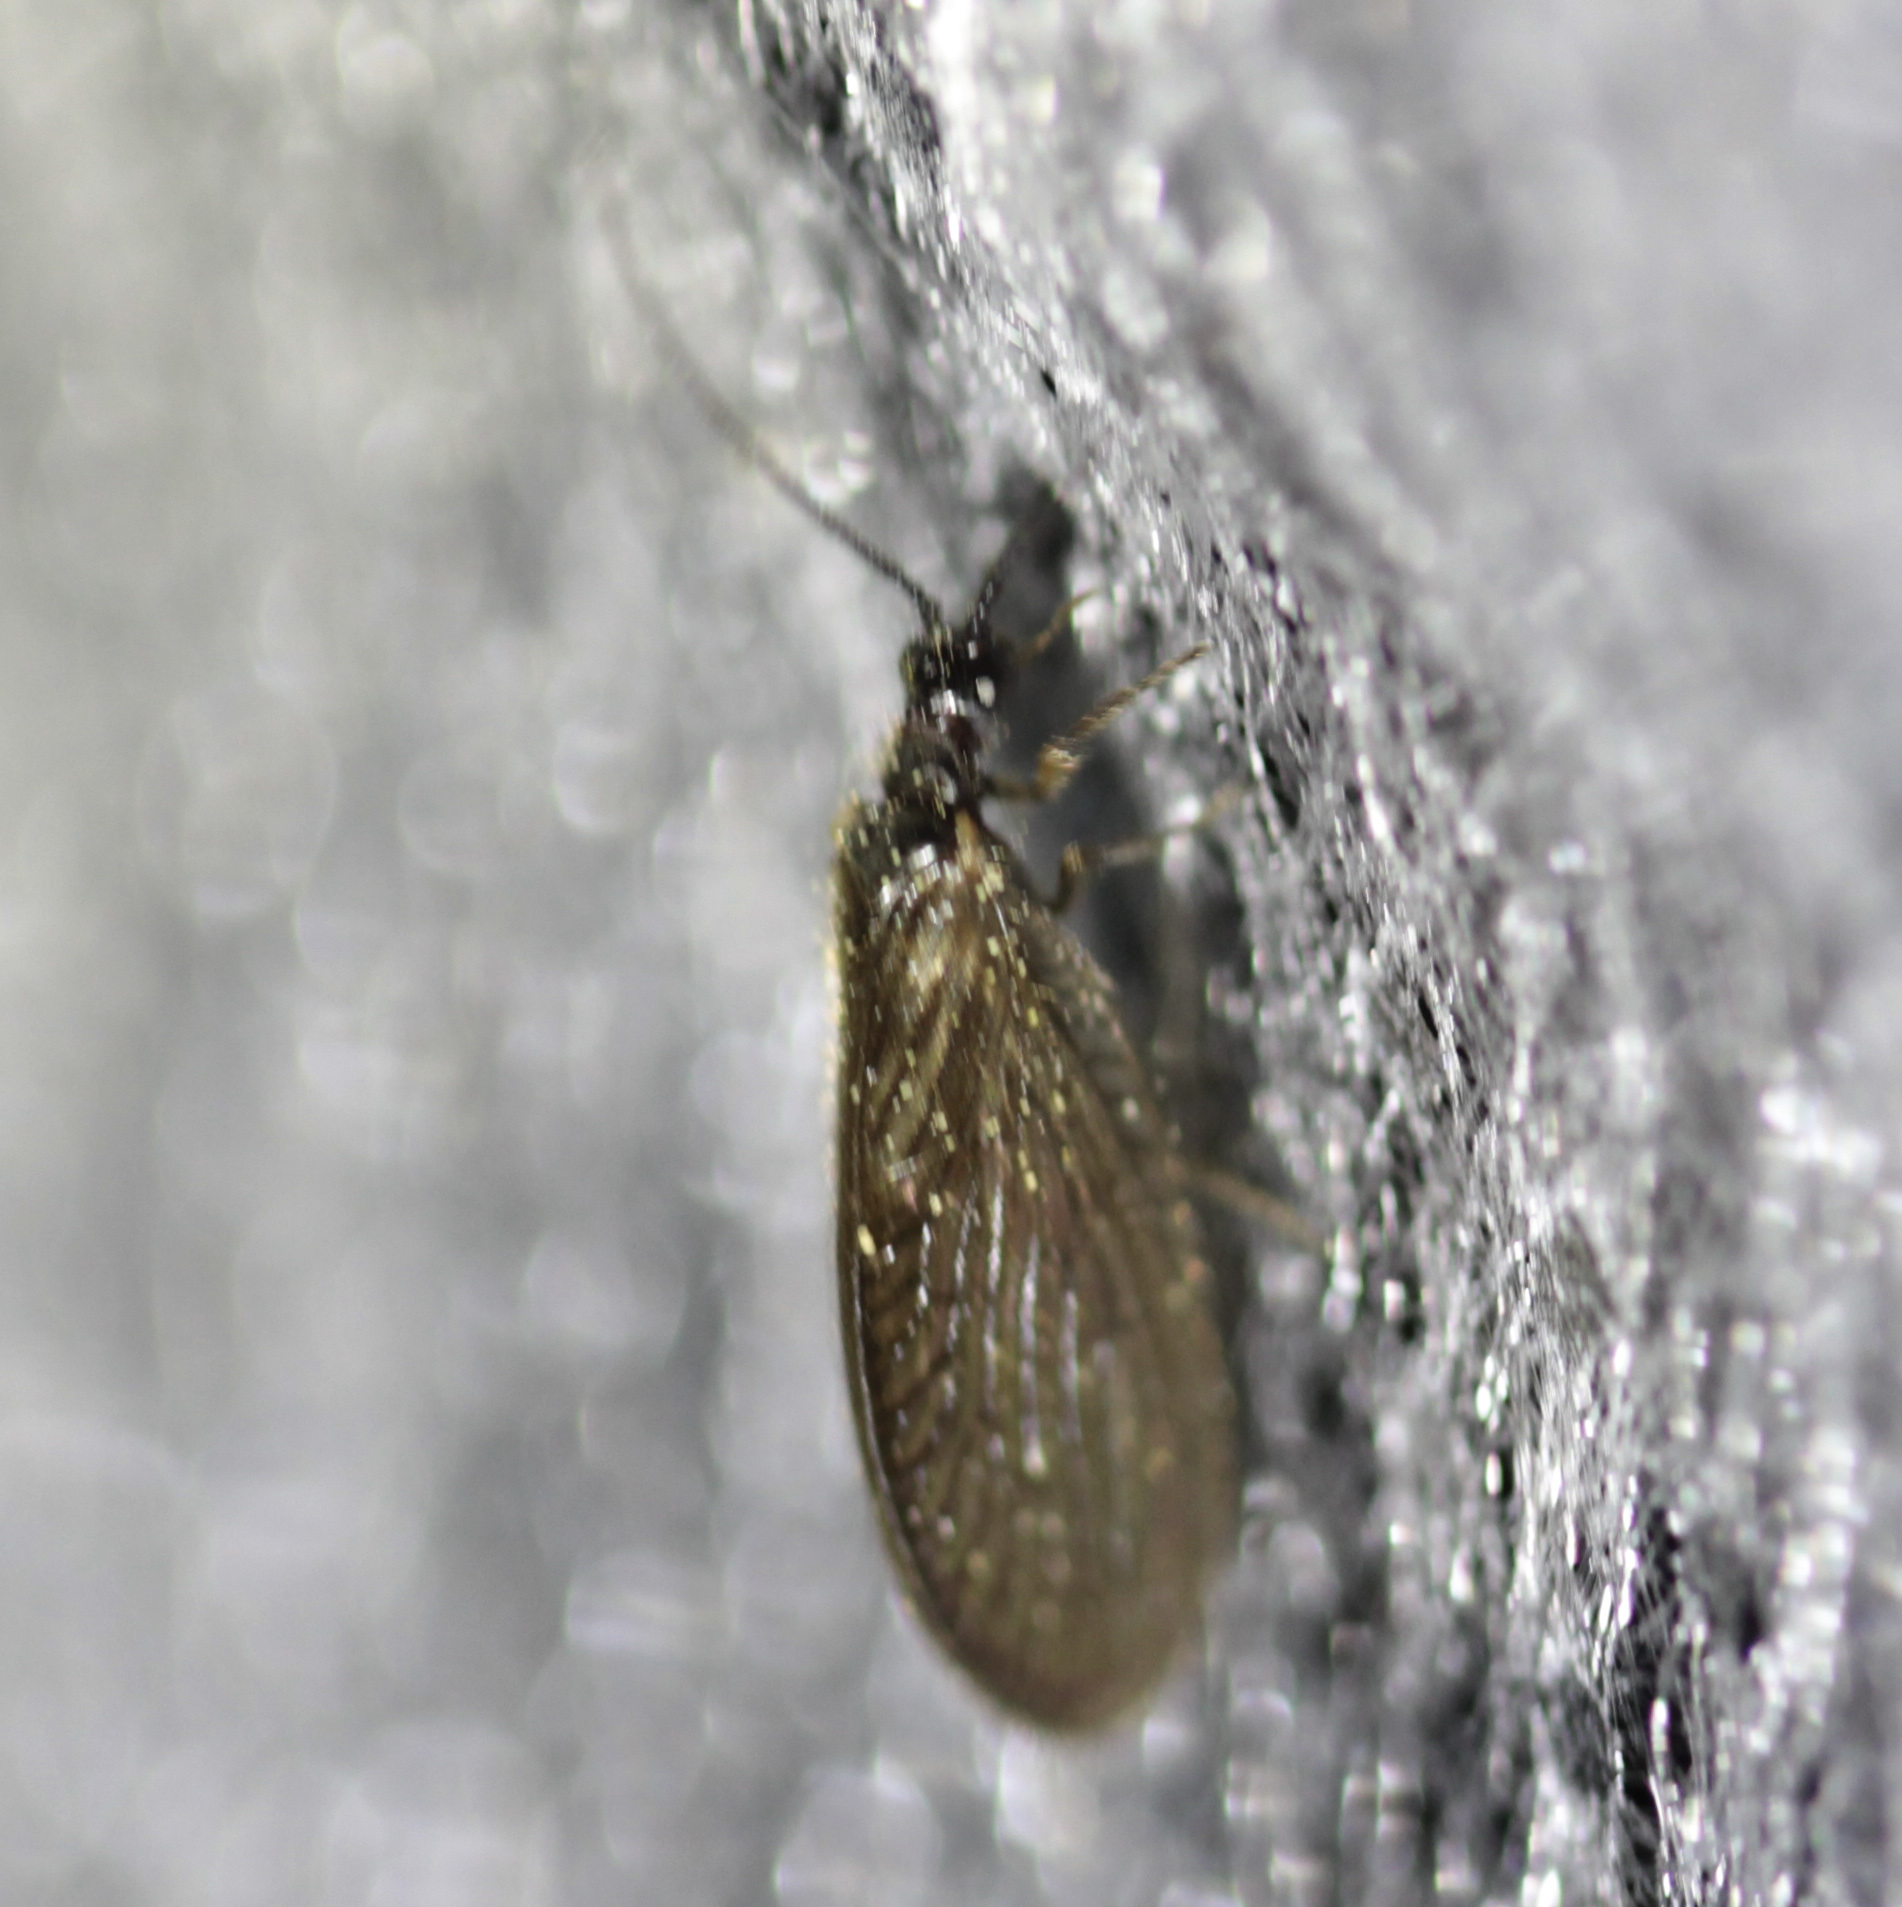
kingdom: Animalia
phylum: Arthropoda
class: Insecta
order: Neuroptera
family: Sisyridae
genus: Sisyra
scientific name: Sisyra nigra
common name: Black spongillafly
